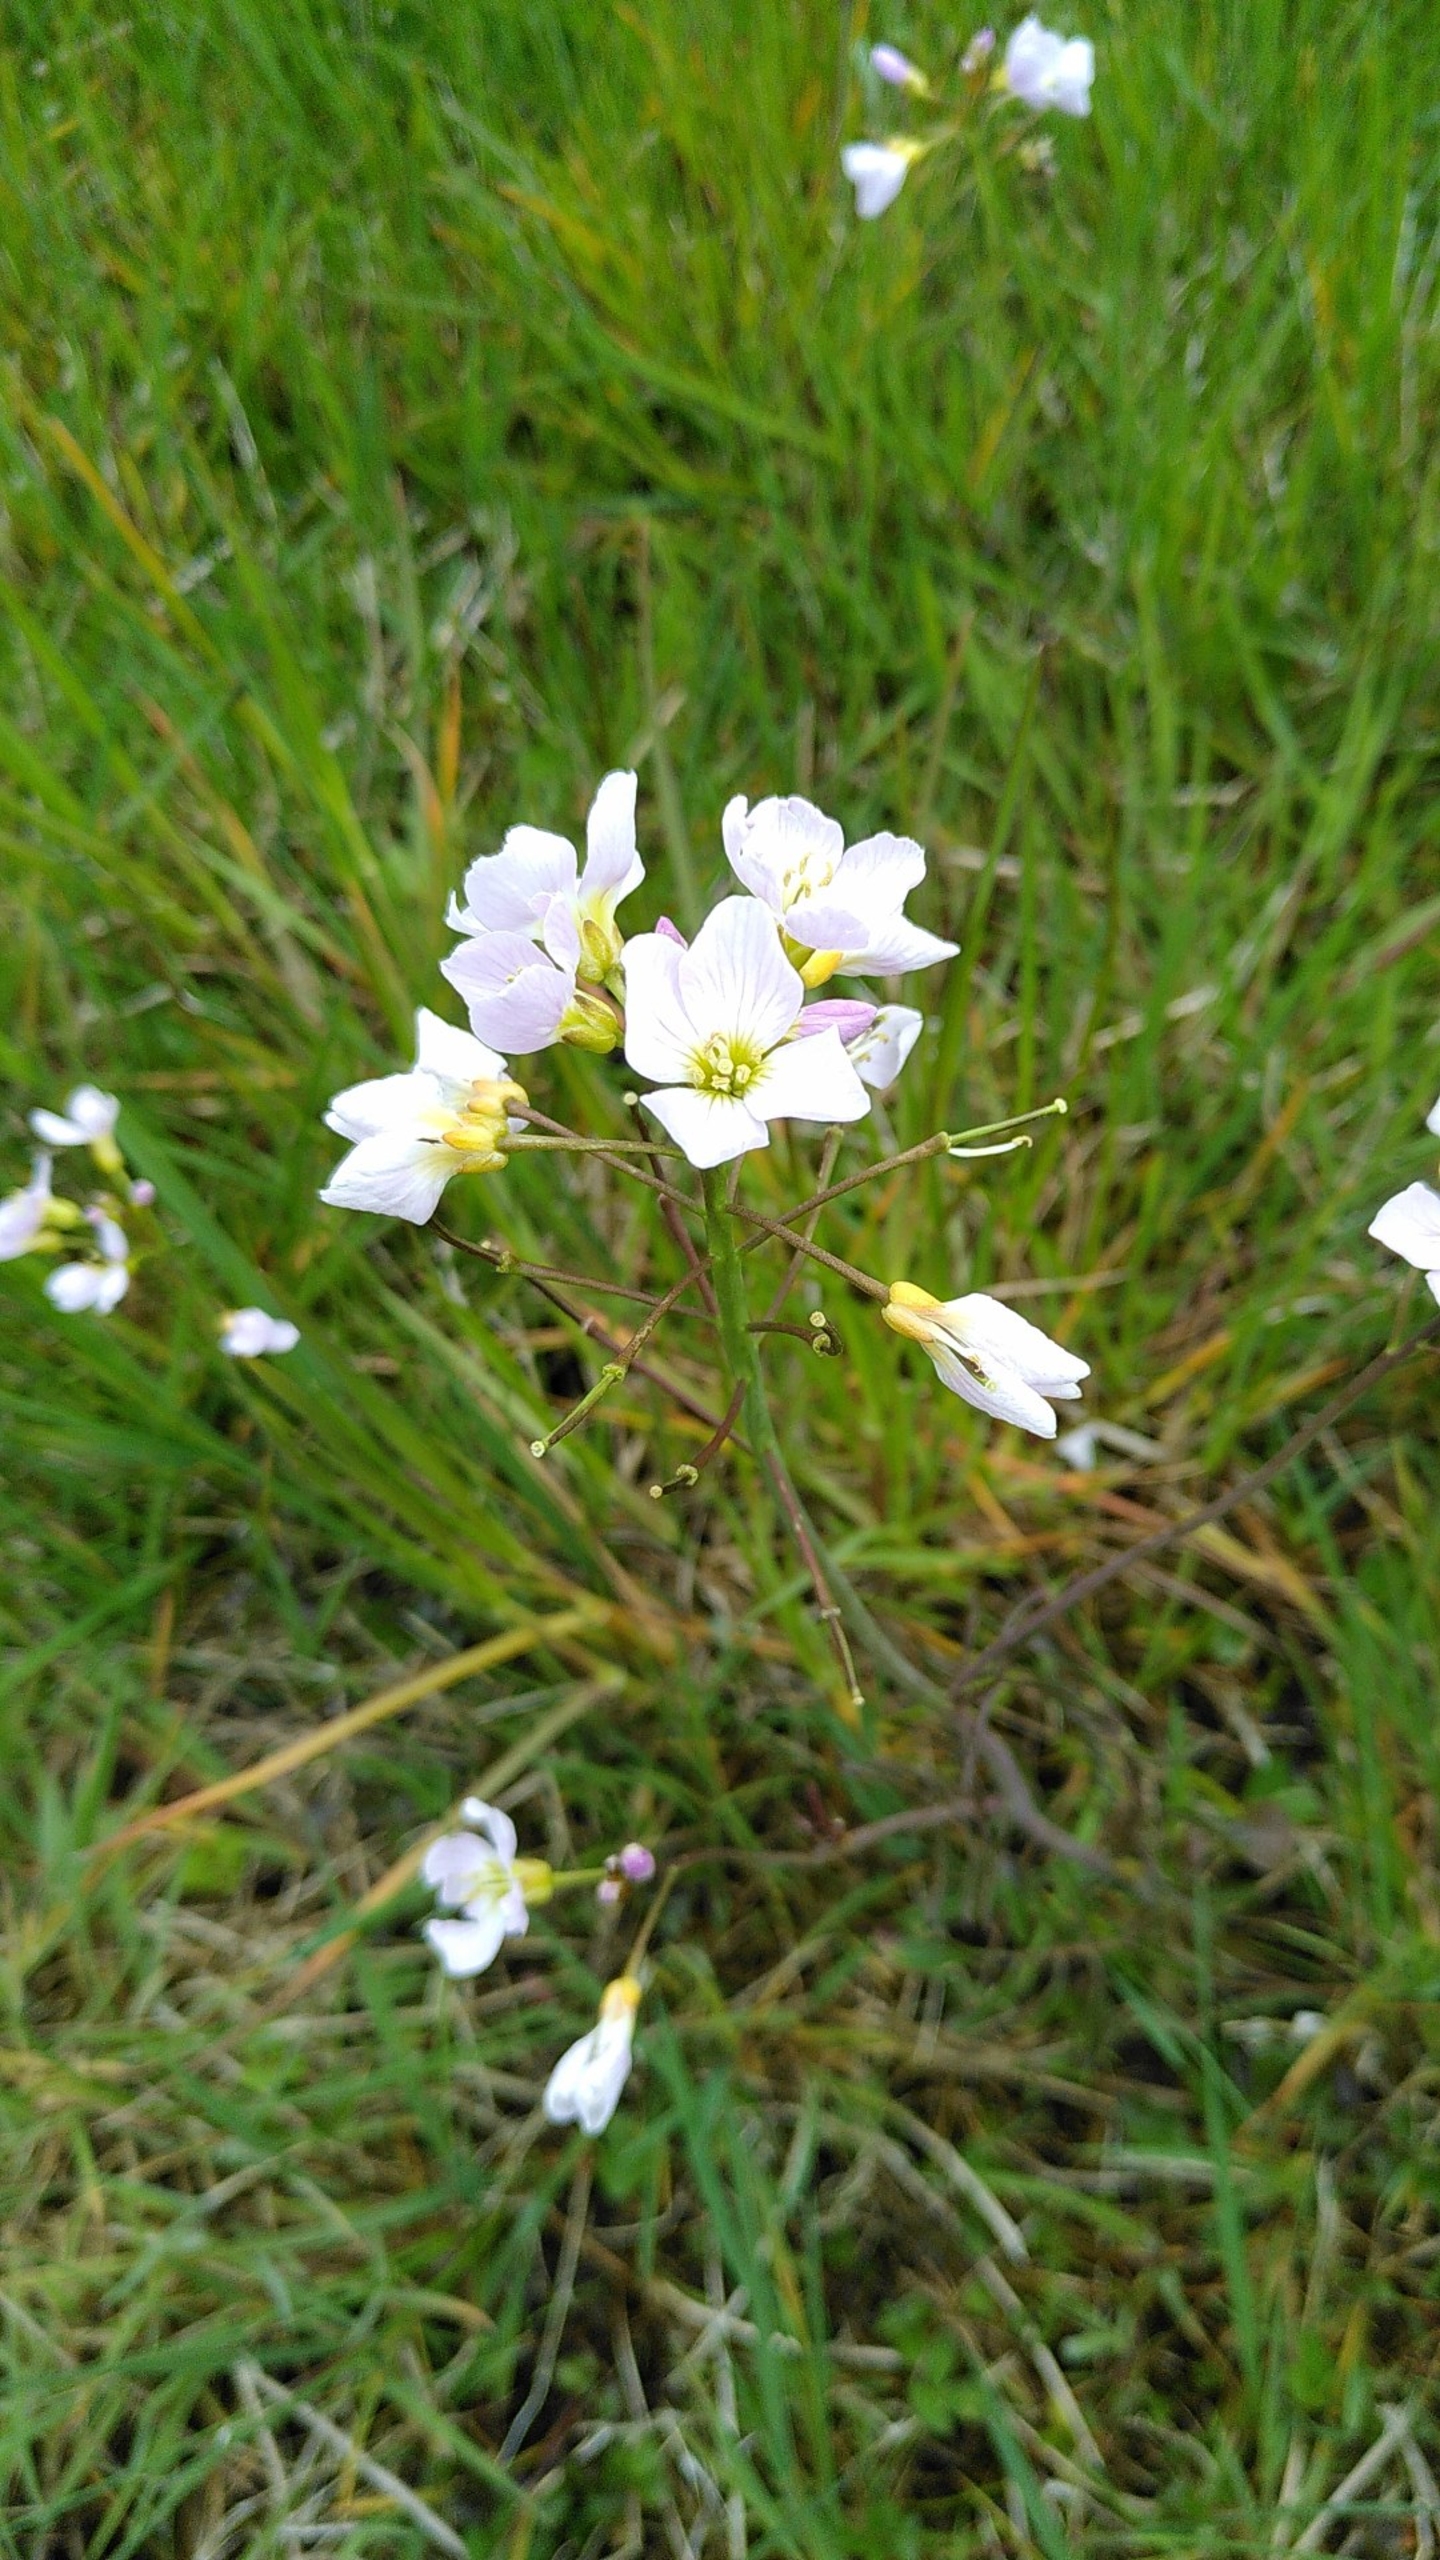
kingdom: Plantae
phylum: Tracheophyta
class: Magnoliopsida
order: Brassicales
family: Brassicaceae
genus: Cardamine
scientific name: Cardamine pratensis
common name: Engkarse
